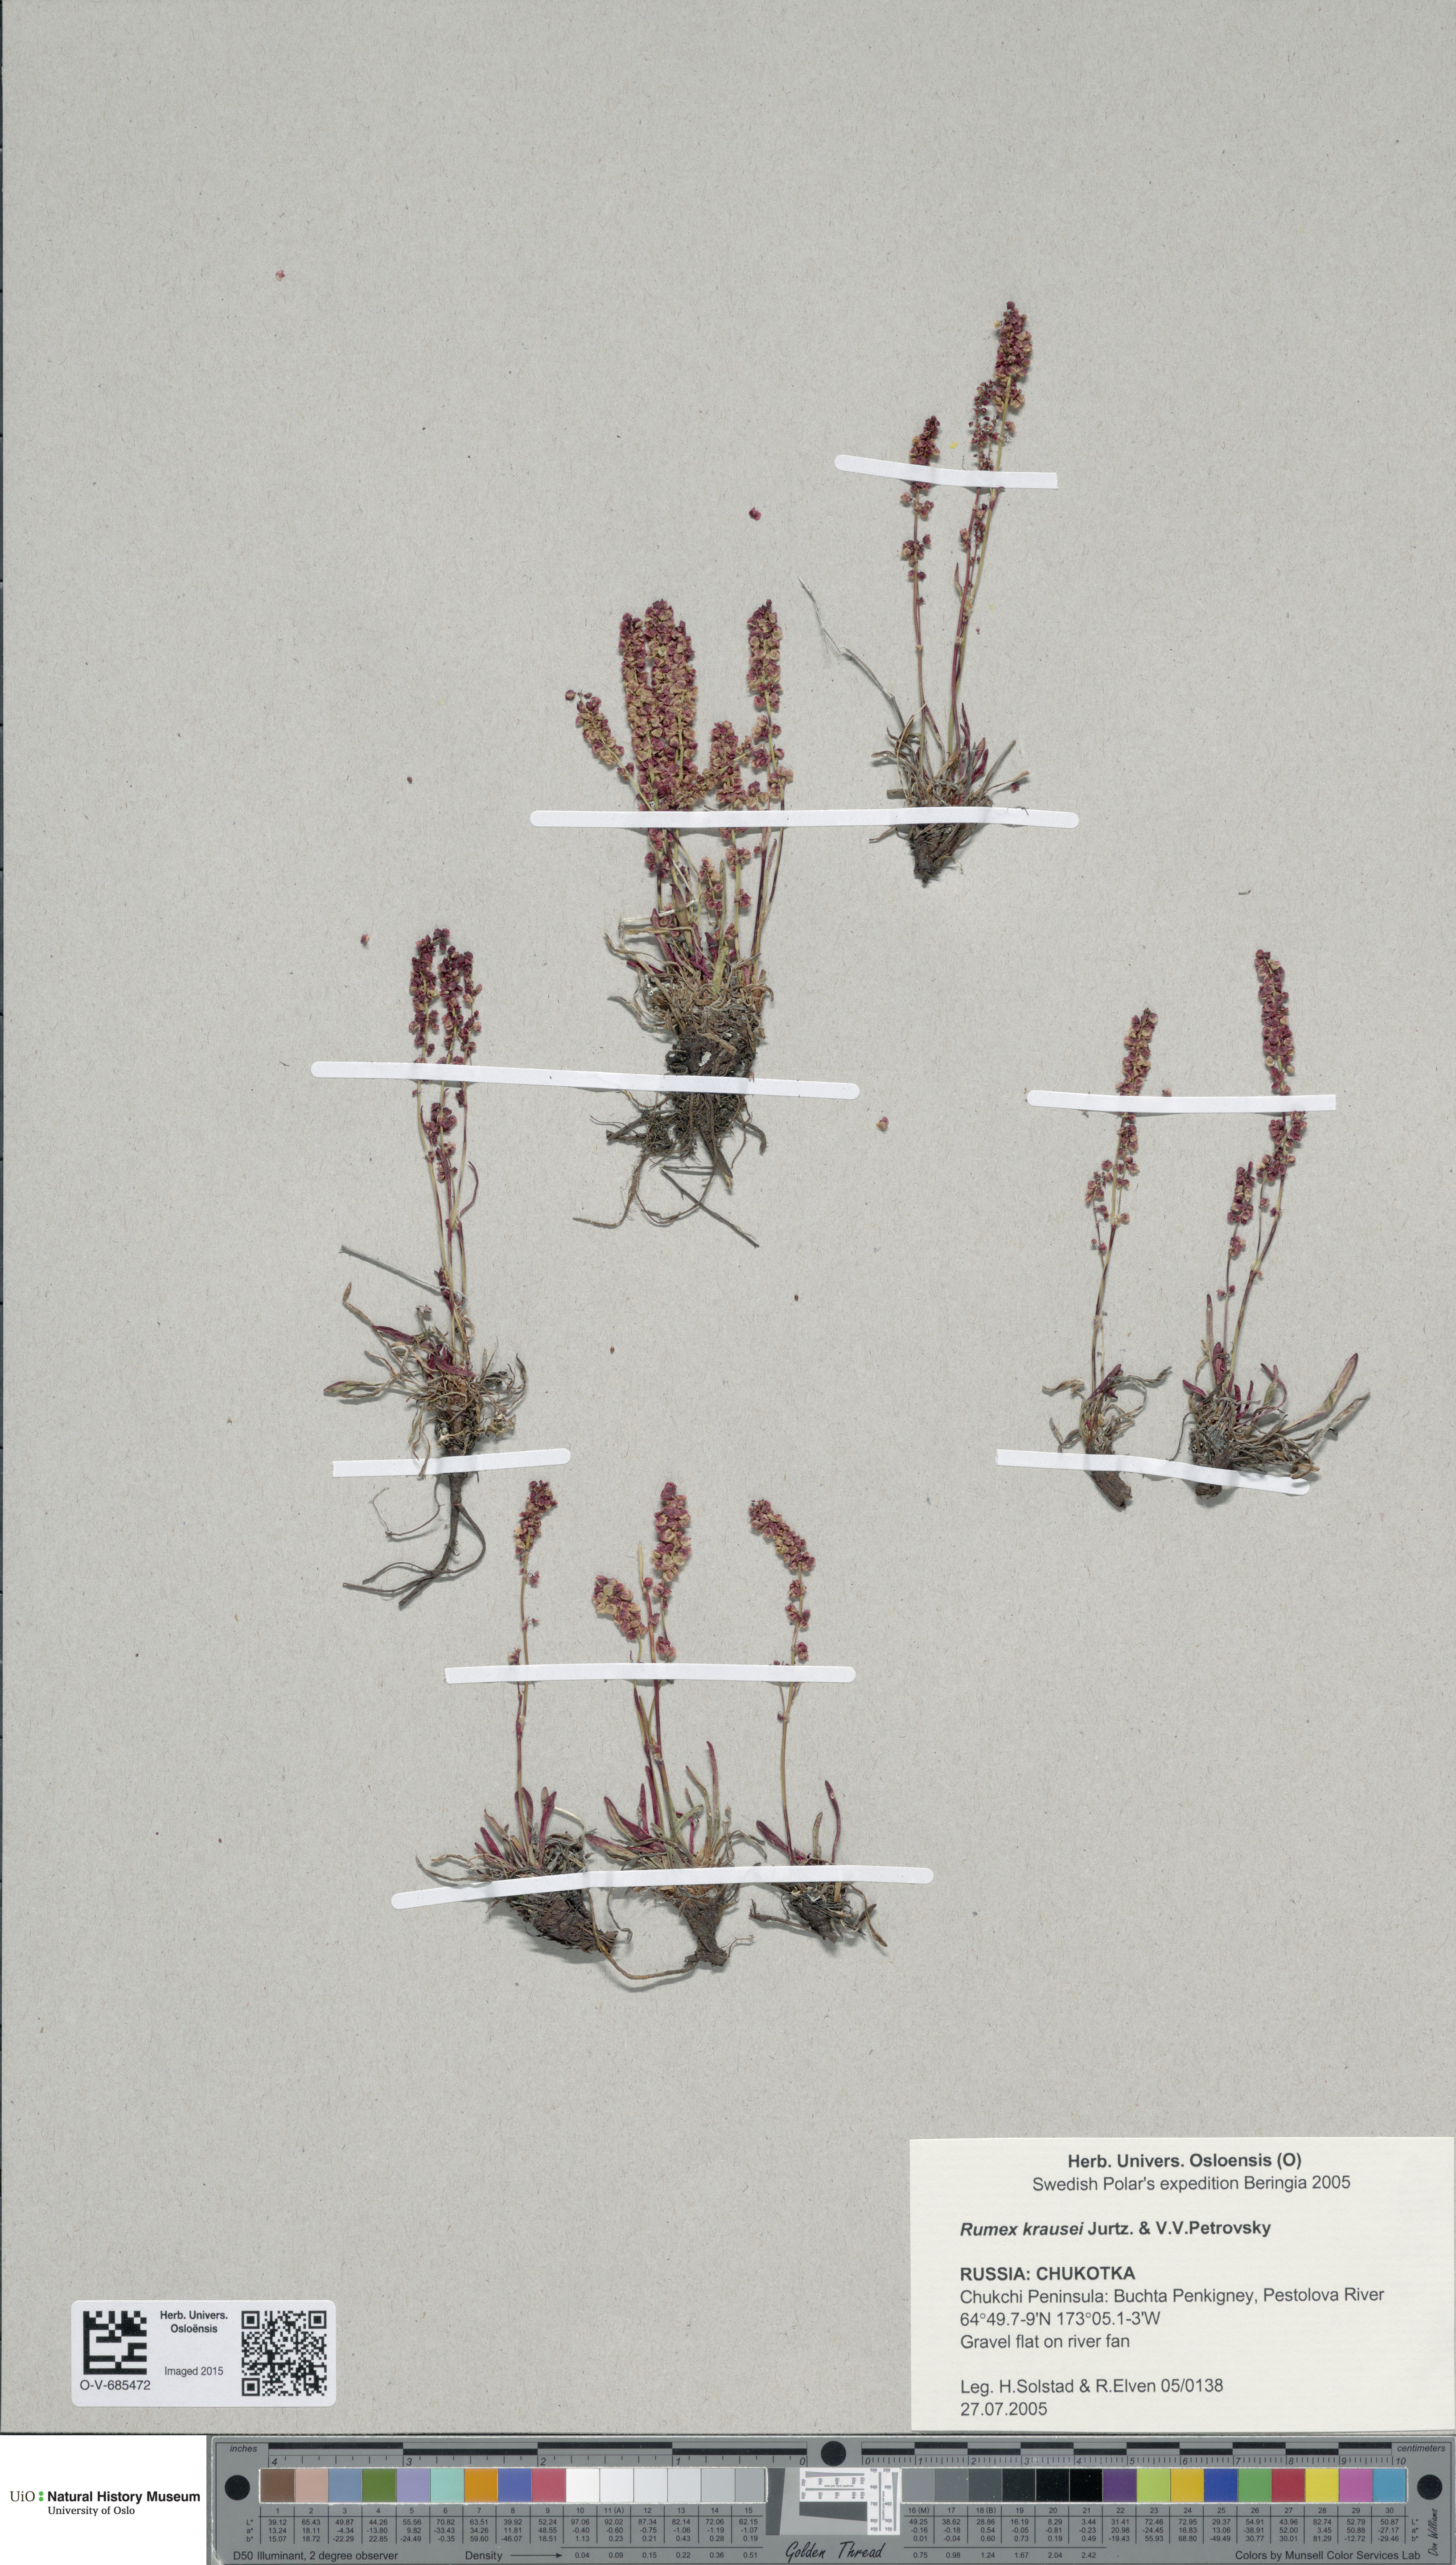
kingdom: Plantae
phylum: Tracheophyta
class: Magnoliopsida
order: Caryophyllales
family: Polygonaceae
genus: Rumex
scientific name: Rumex krausei
